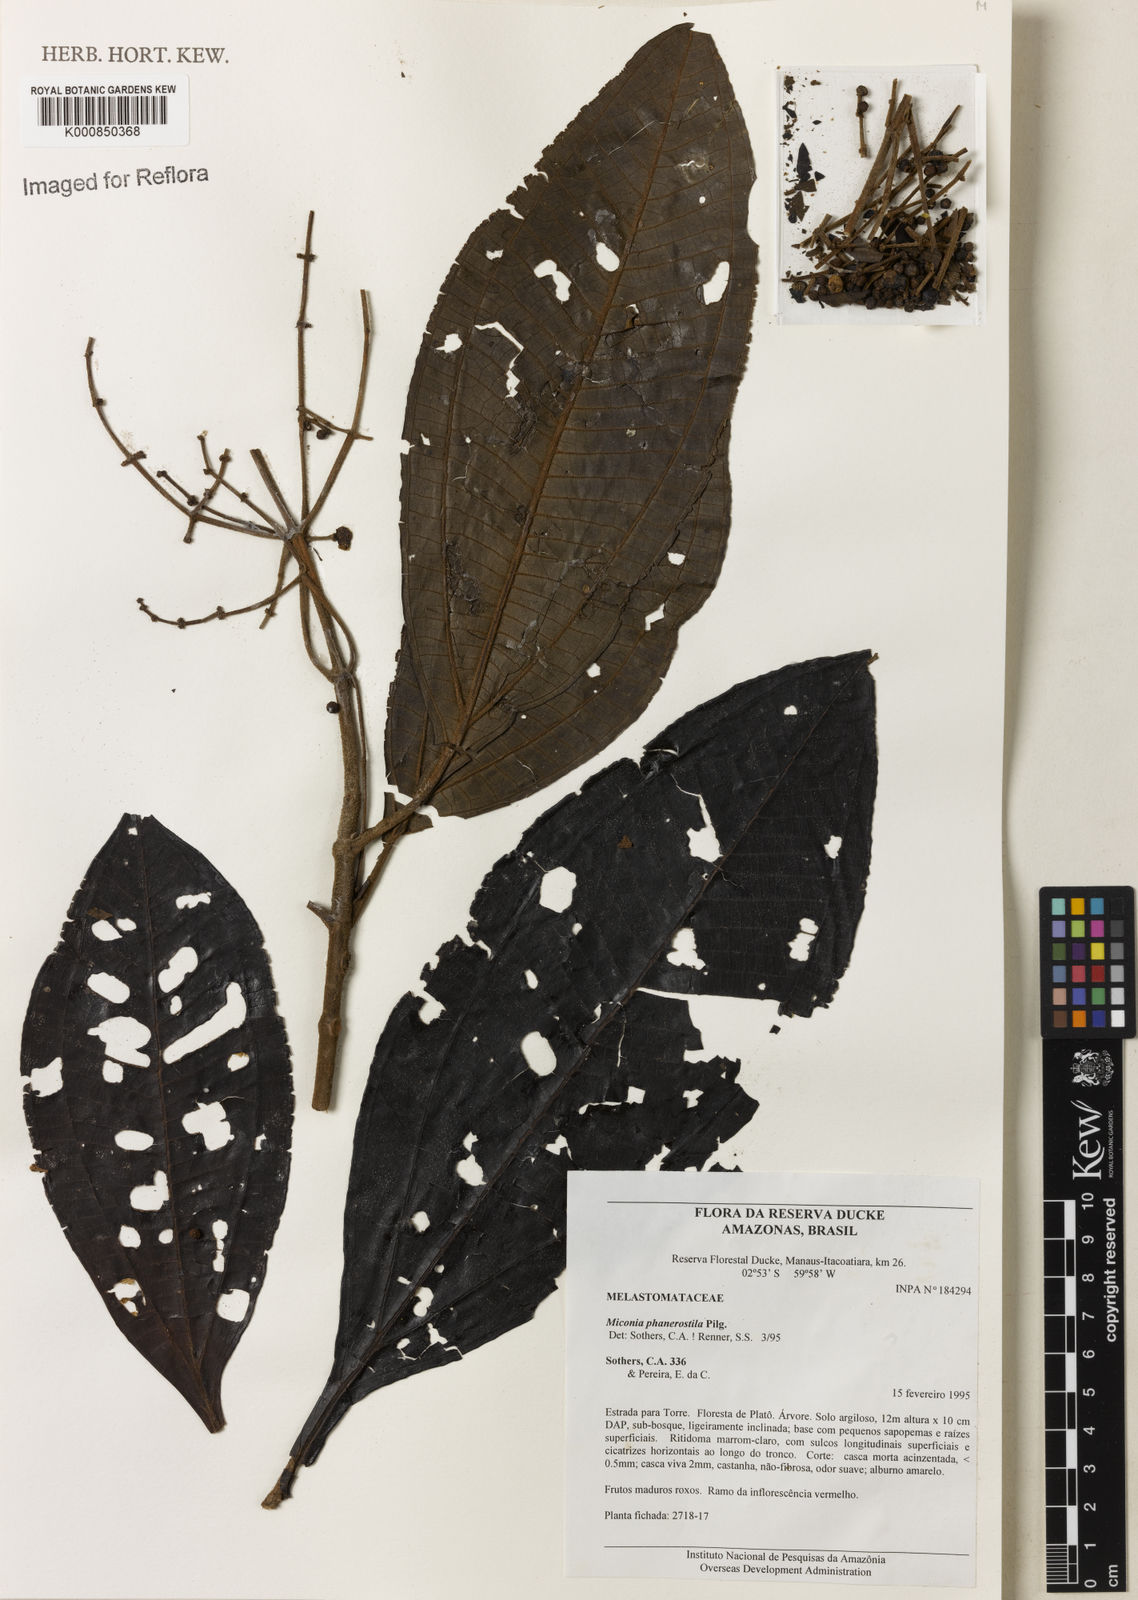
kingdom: Plantae
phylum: Tracheophyta
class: Magnoliopsida
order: Myrtales
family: Melastomataceae
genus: Miconia
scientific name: Miconia phanerostila
